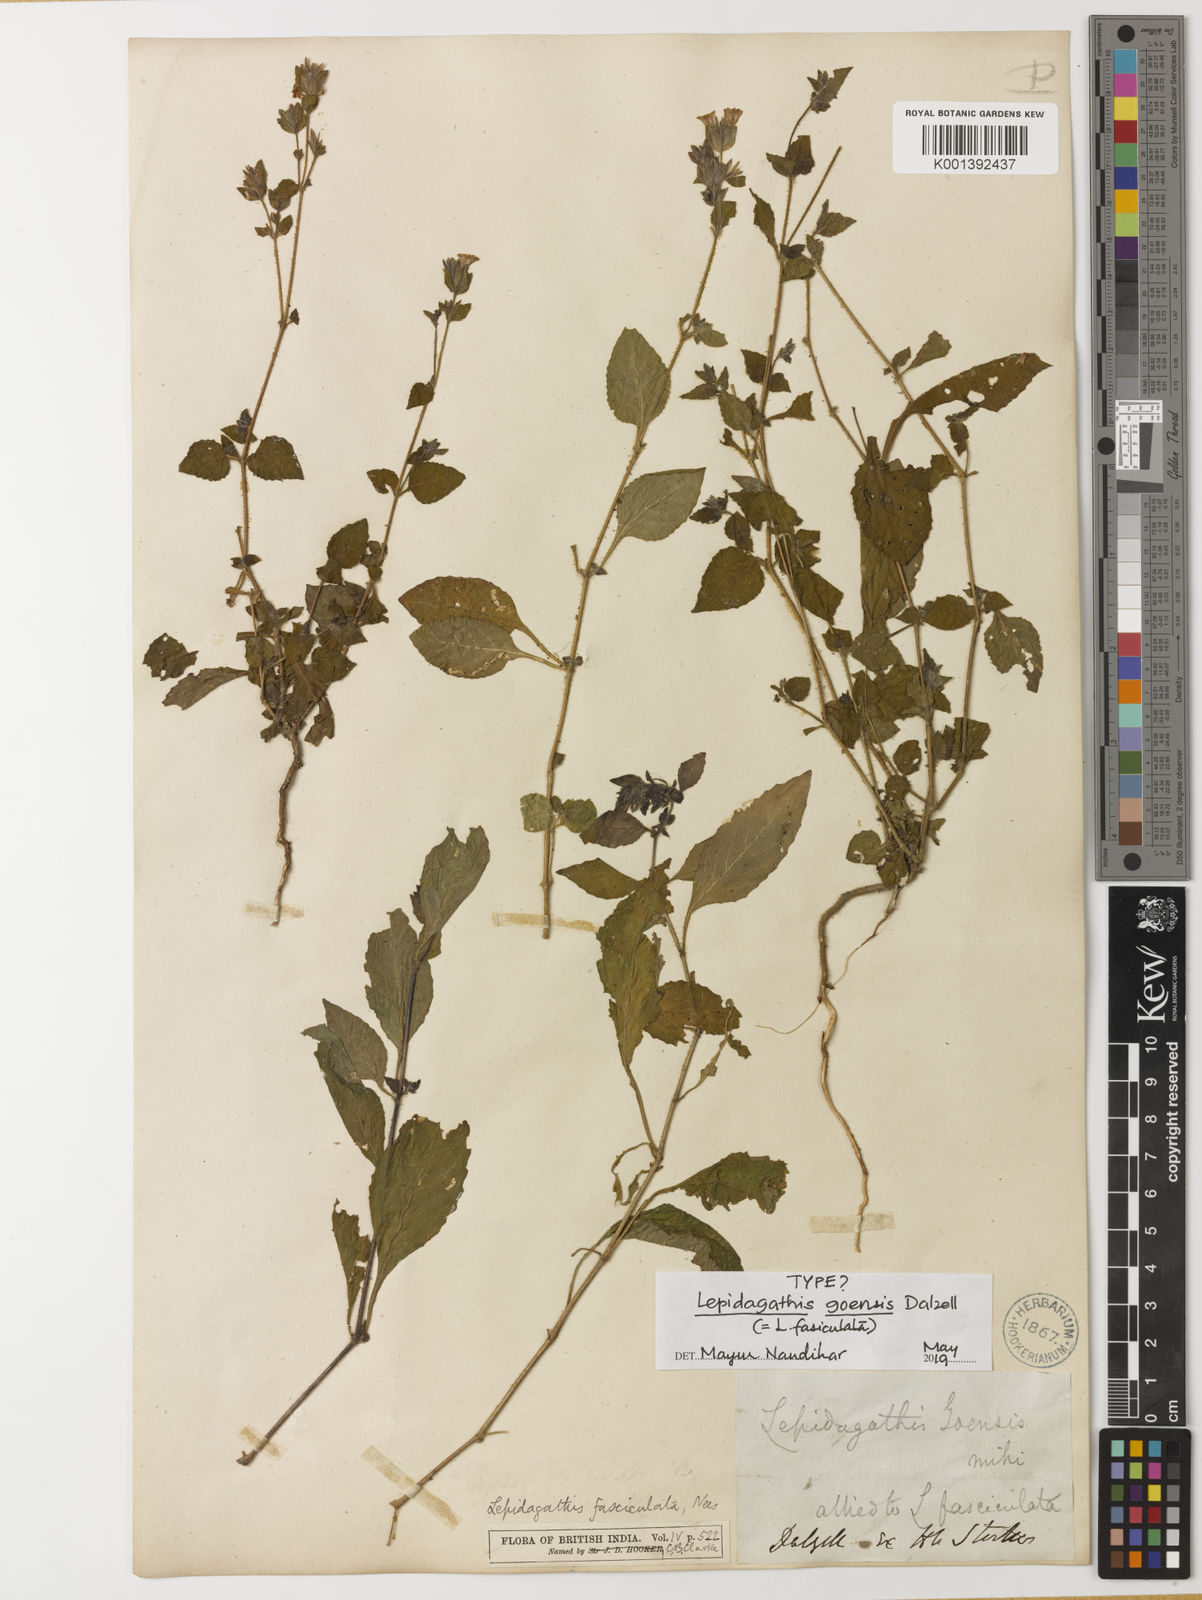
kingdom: Plantae
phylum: Tracheophyta
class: Magnoliopsida
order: Lamiales
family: Acanthaceae
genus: Lepidagathis
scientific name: Lepidagathis fasciculata
